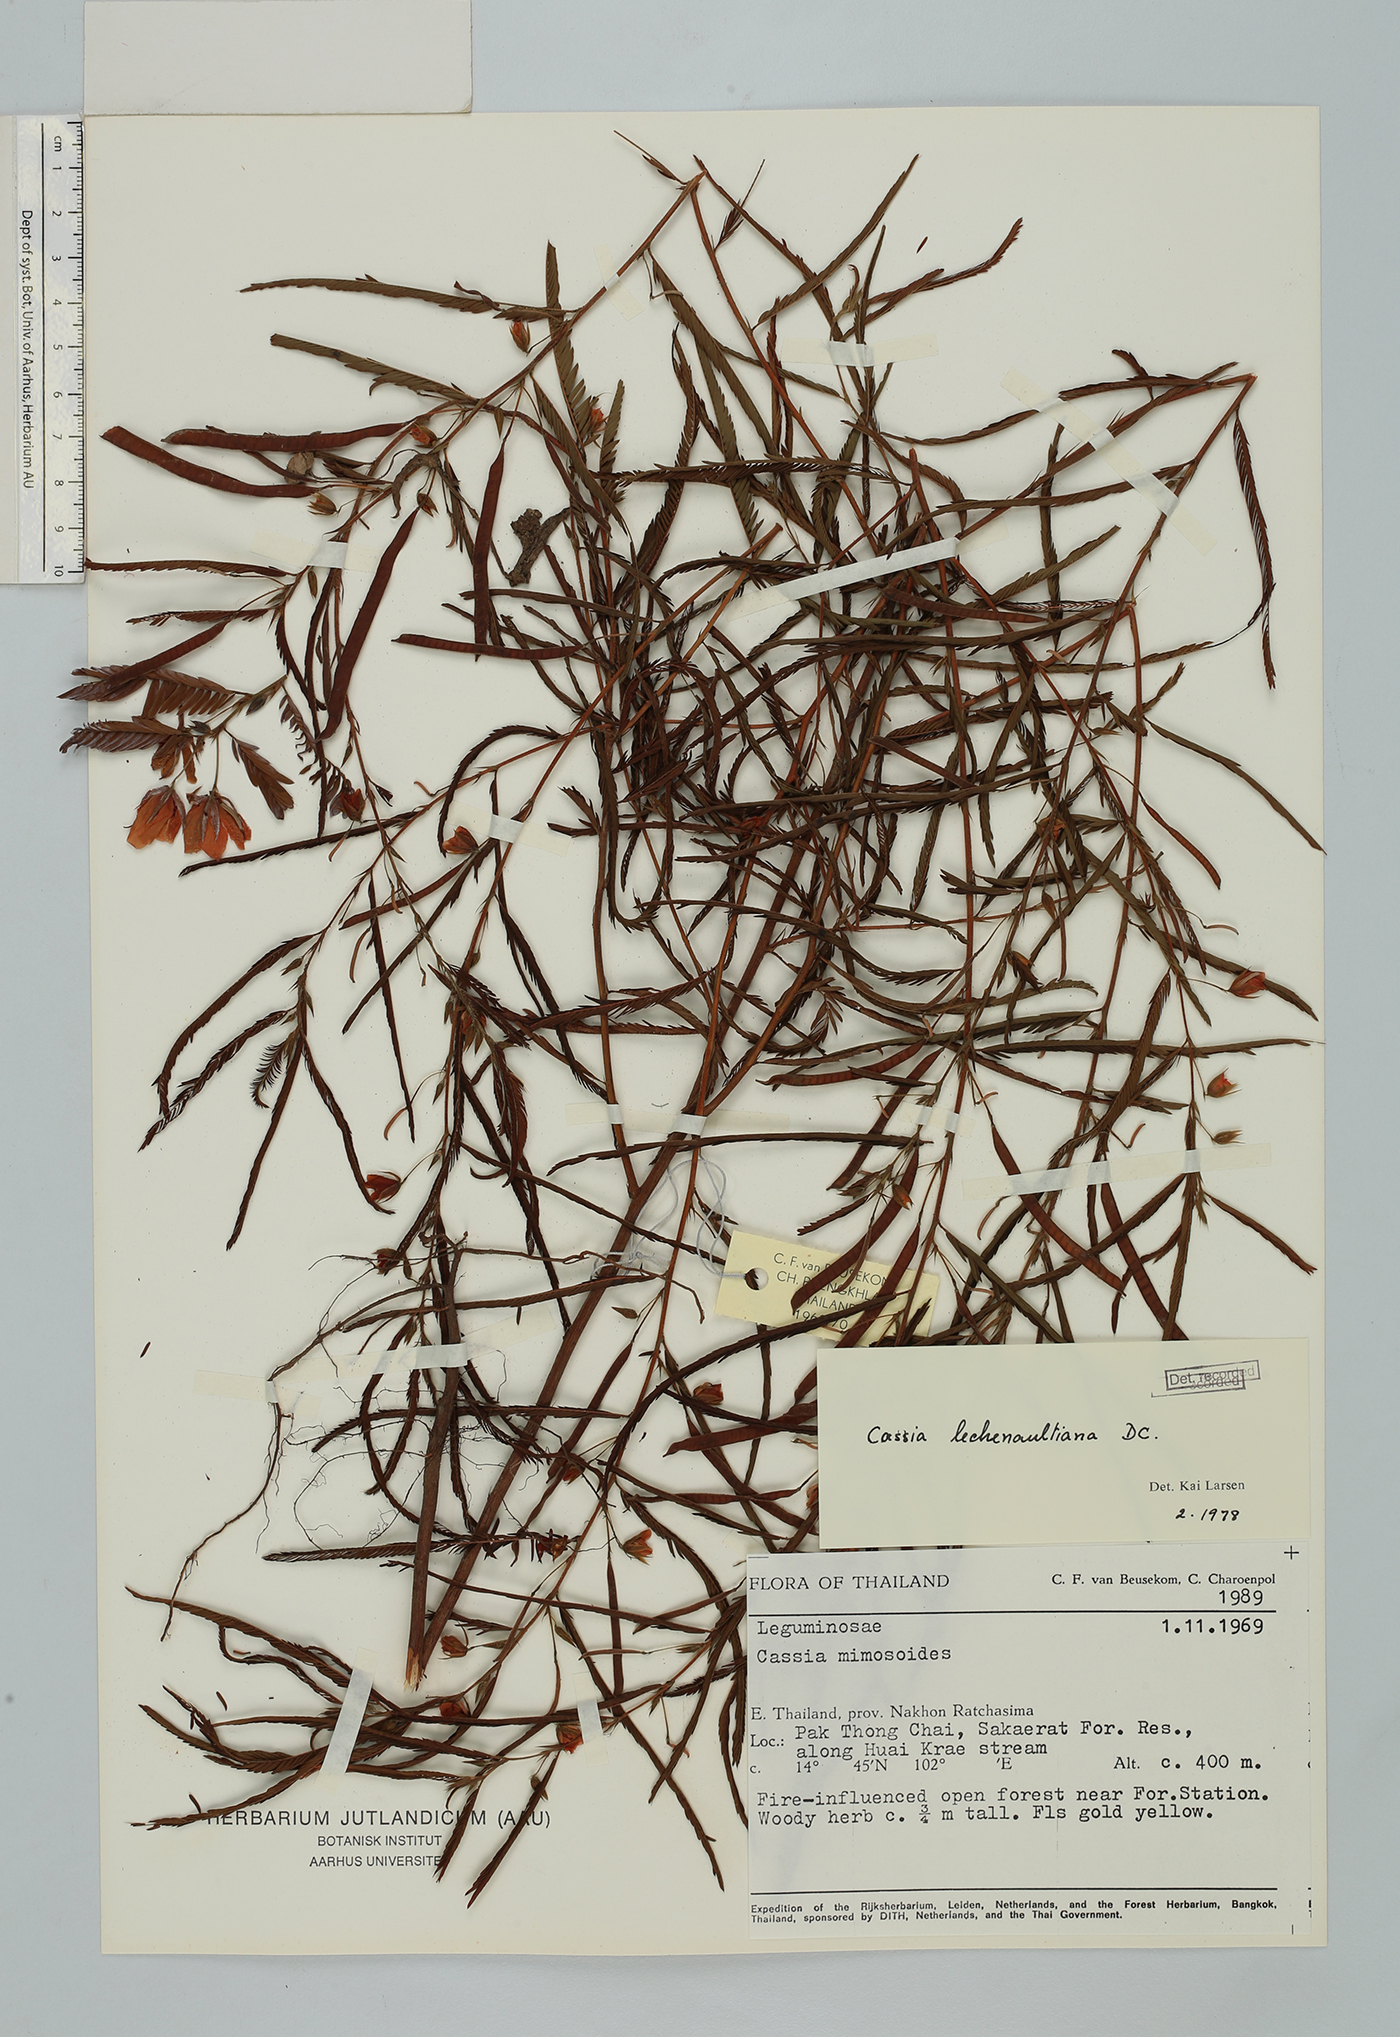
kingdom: Plantae
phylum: Tracheophyta
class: Magnoliopsida
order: Fabales
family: Fabaceae
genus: Chamaecrista
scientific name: Chamaecrista leschenaultiana
